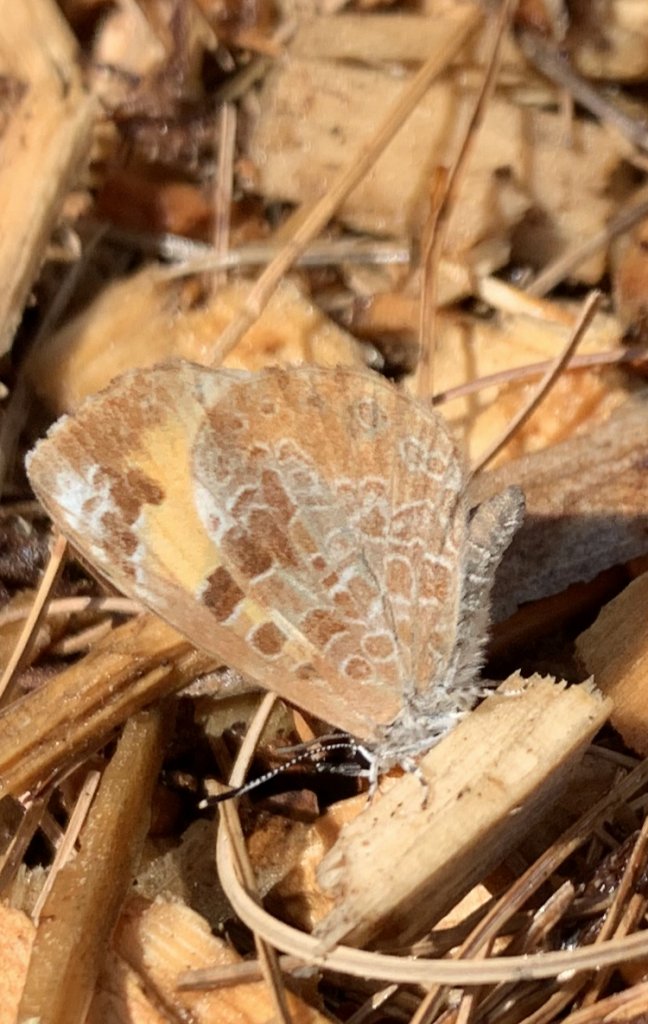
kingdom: Animalia
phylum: Arthropoda
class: Insecta
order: Lepidoptera
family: Lycaenidae
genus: Feniseca
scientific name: Feniseca tarquinius
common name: Harvester
